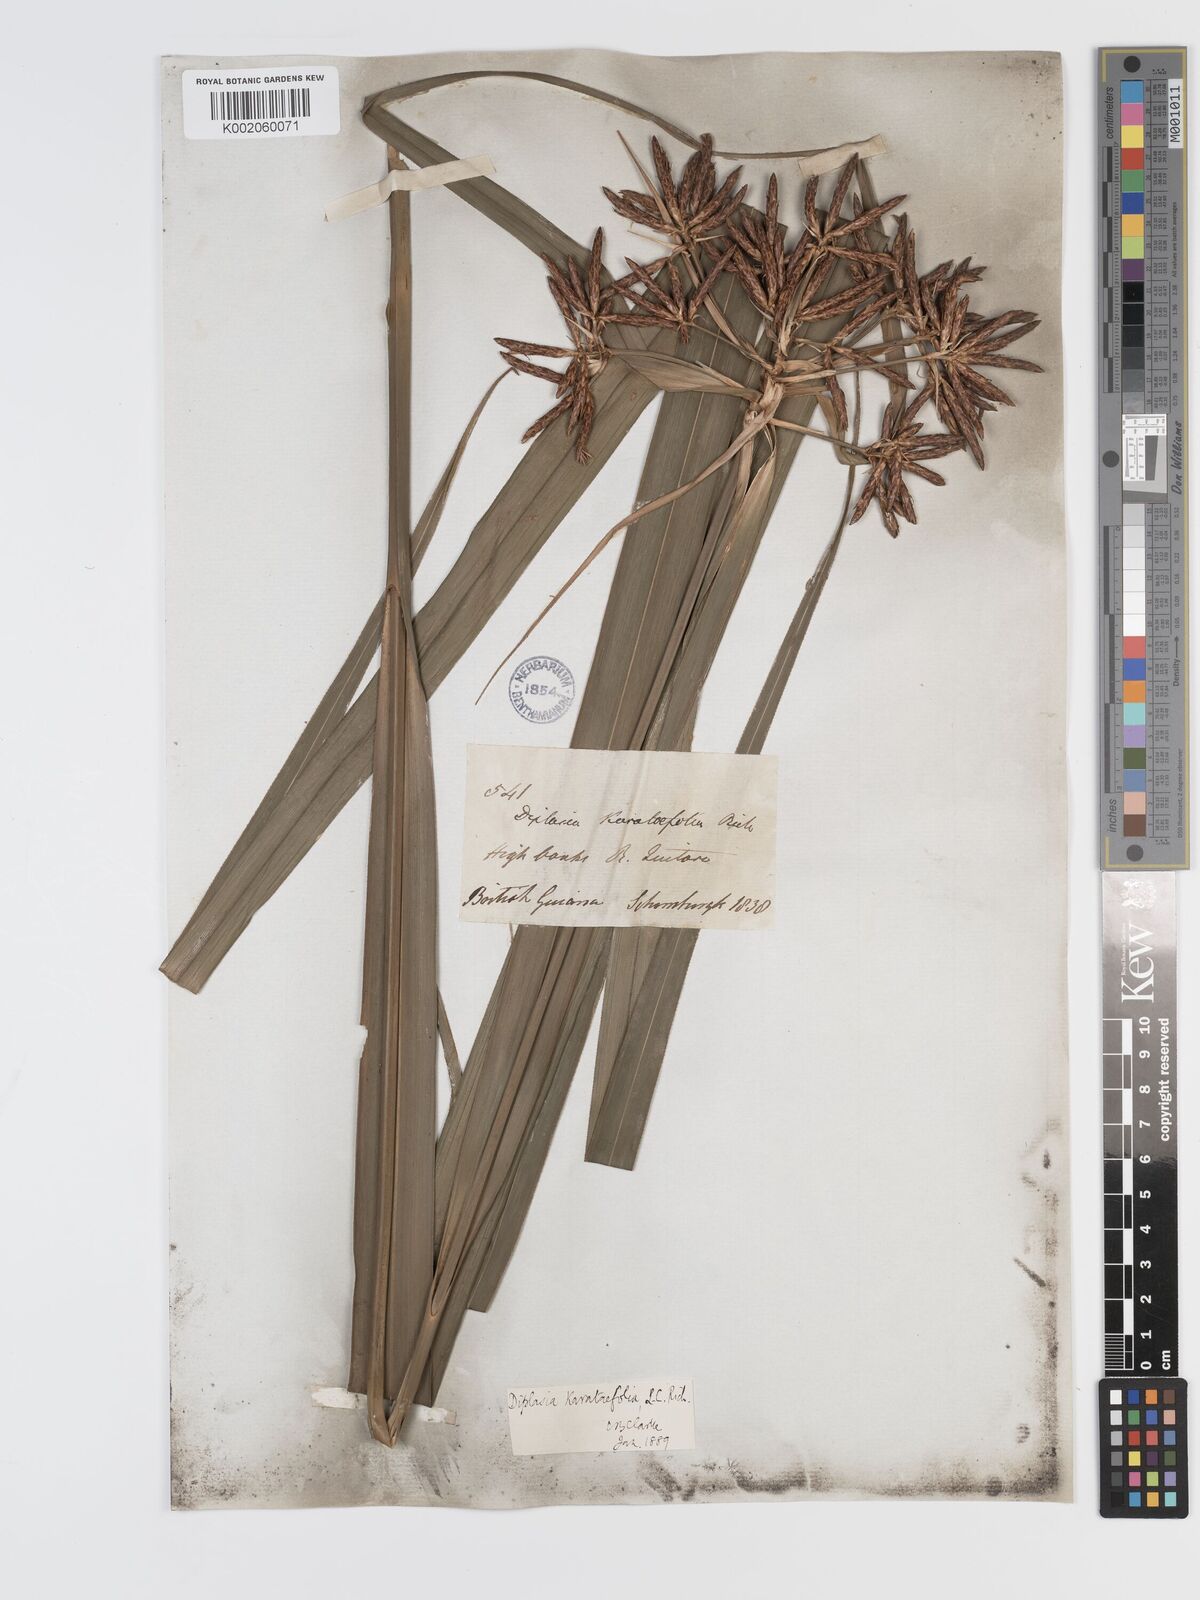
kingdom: Plantae
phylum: Tracheophyta
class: Liliopsida
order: Poales
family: Cyperaceae
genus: Diplasia
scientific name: Diplasia karatifolia
